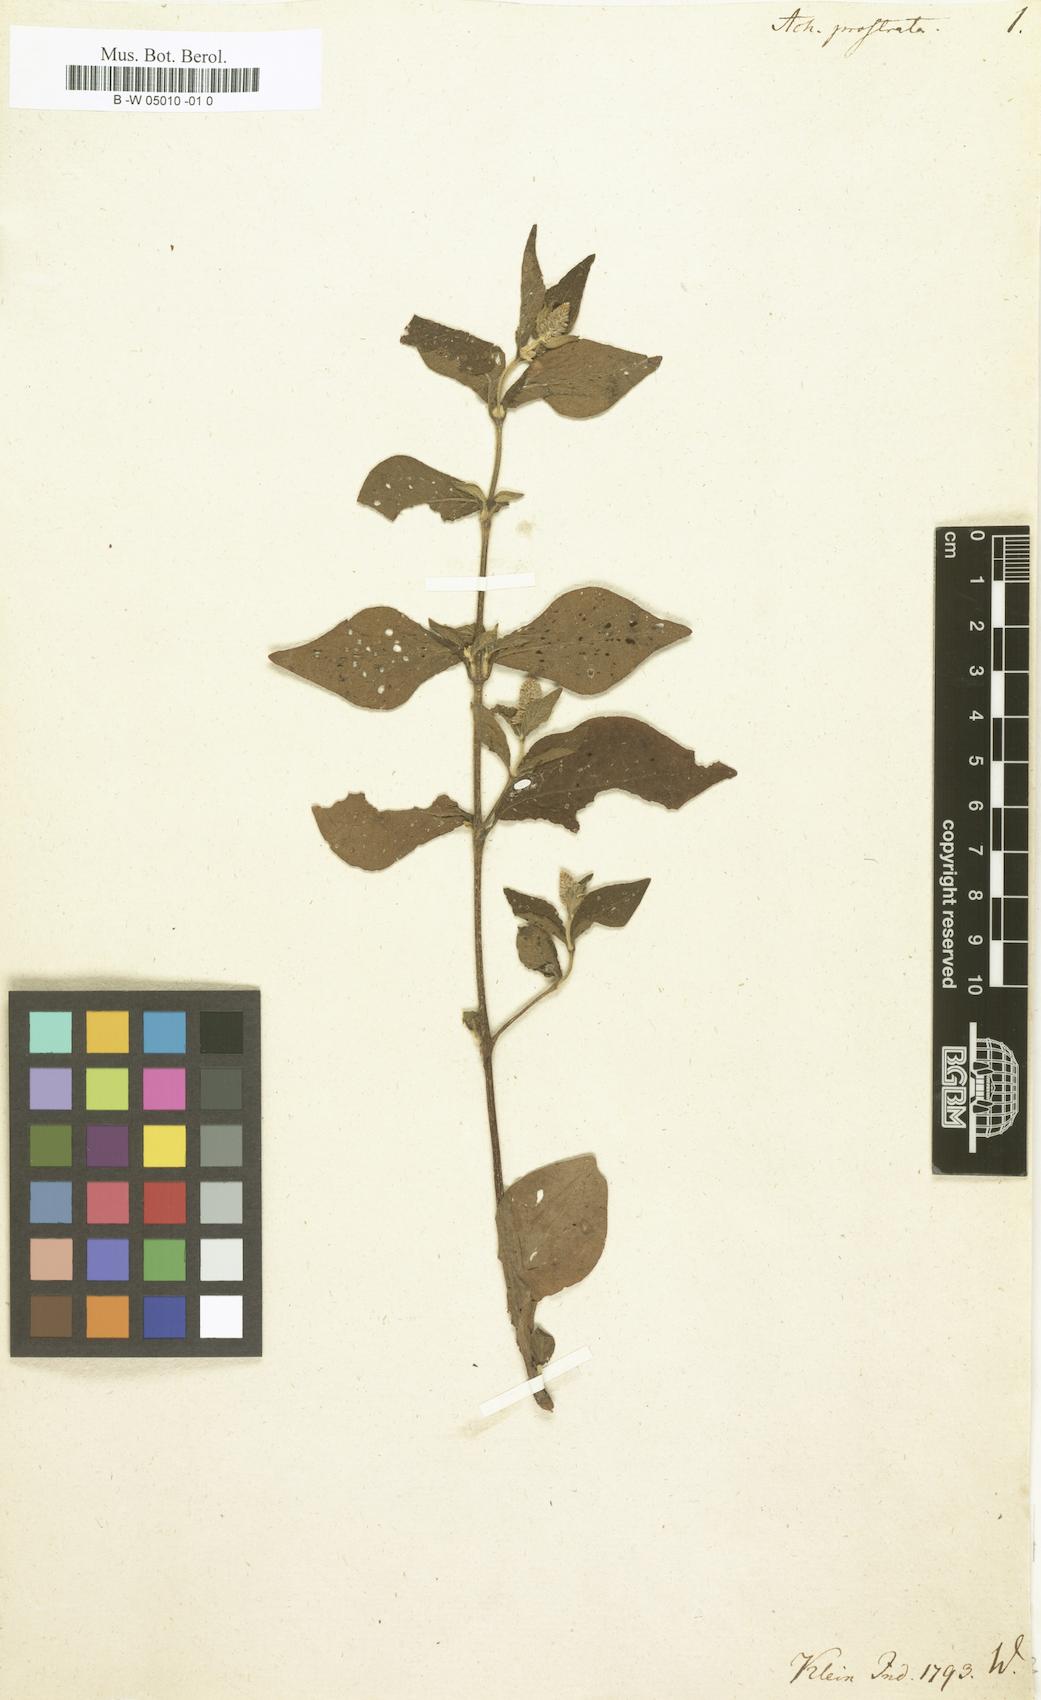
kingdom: Plantae
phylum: Tracheophyta
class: Magnoliopsida
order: Caryophyllales
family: Amaranthaceae
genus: Cyathula
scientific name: Cyathula prostrata
